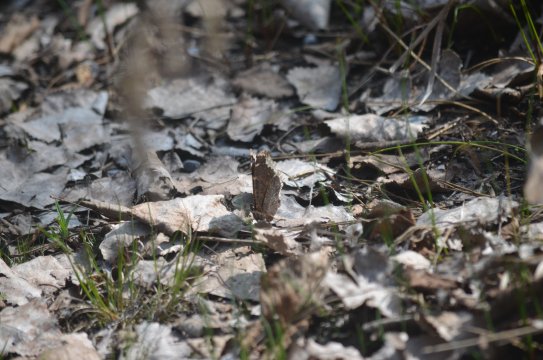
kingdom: Animalia
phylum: Arthropoda
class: Insecta
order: Lepidoptera
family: Nymphalidae
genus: Nymphalis
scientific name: Nymphalis antiopa
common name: Mourning Cloak
